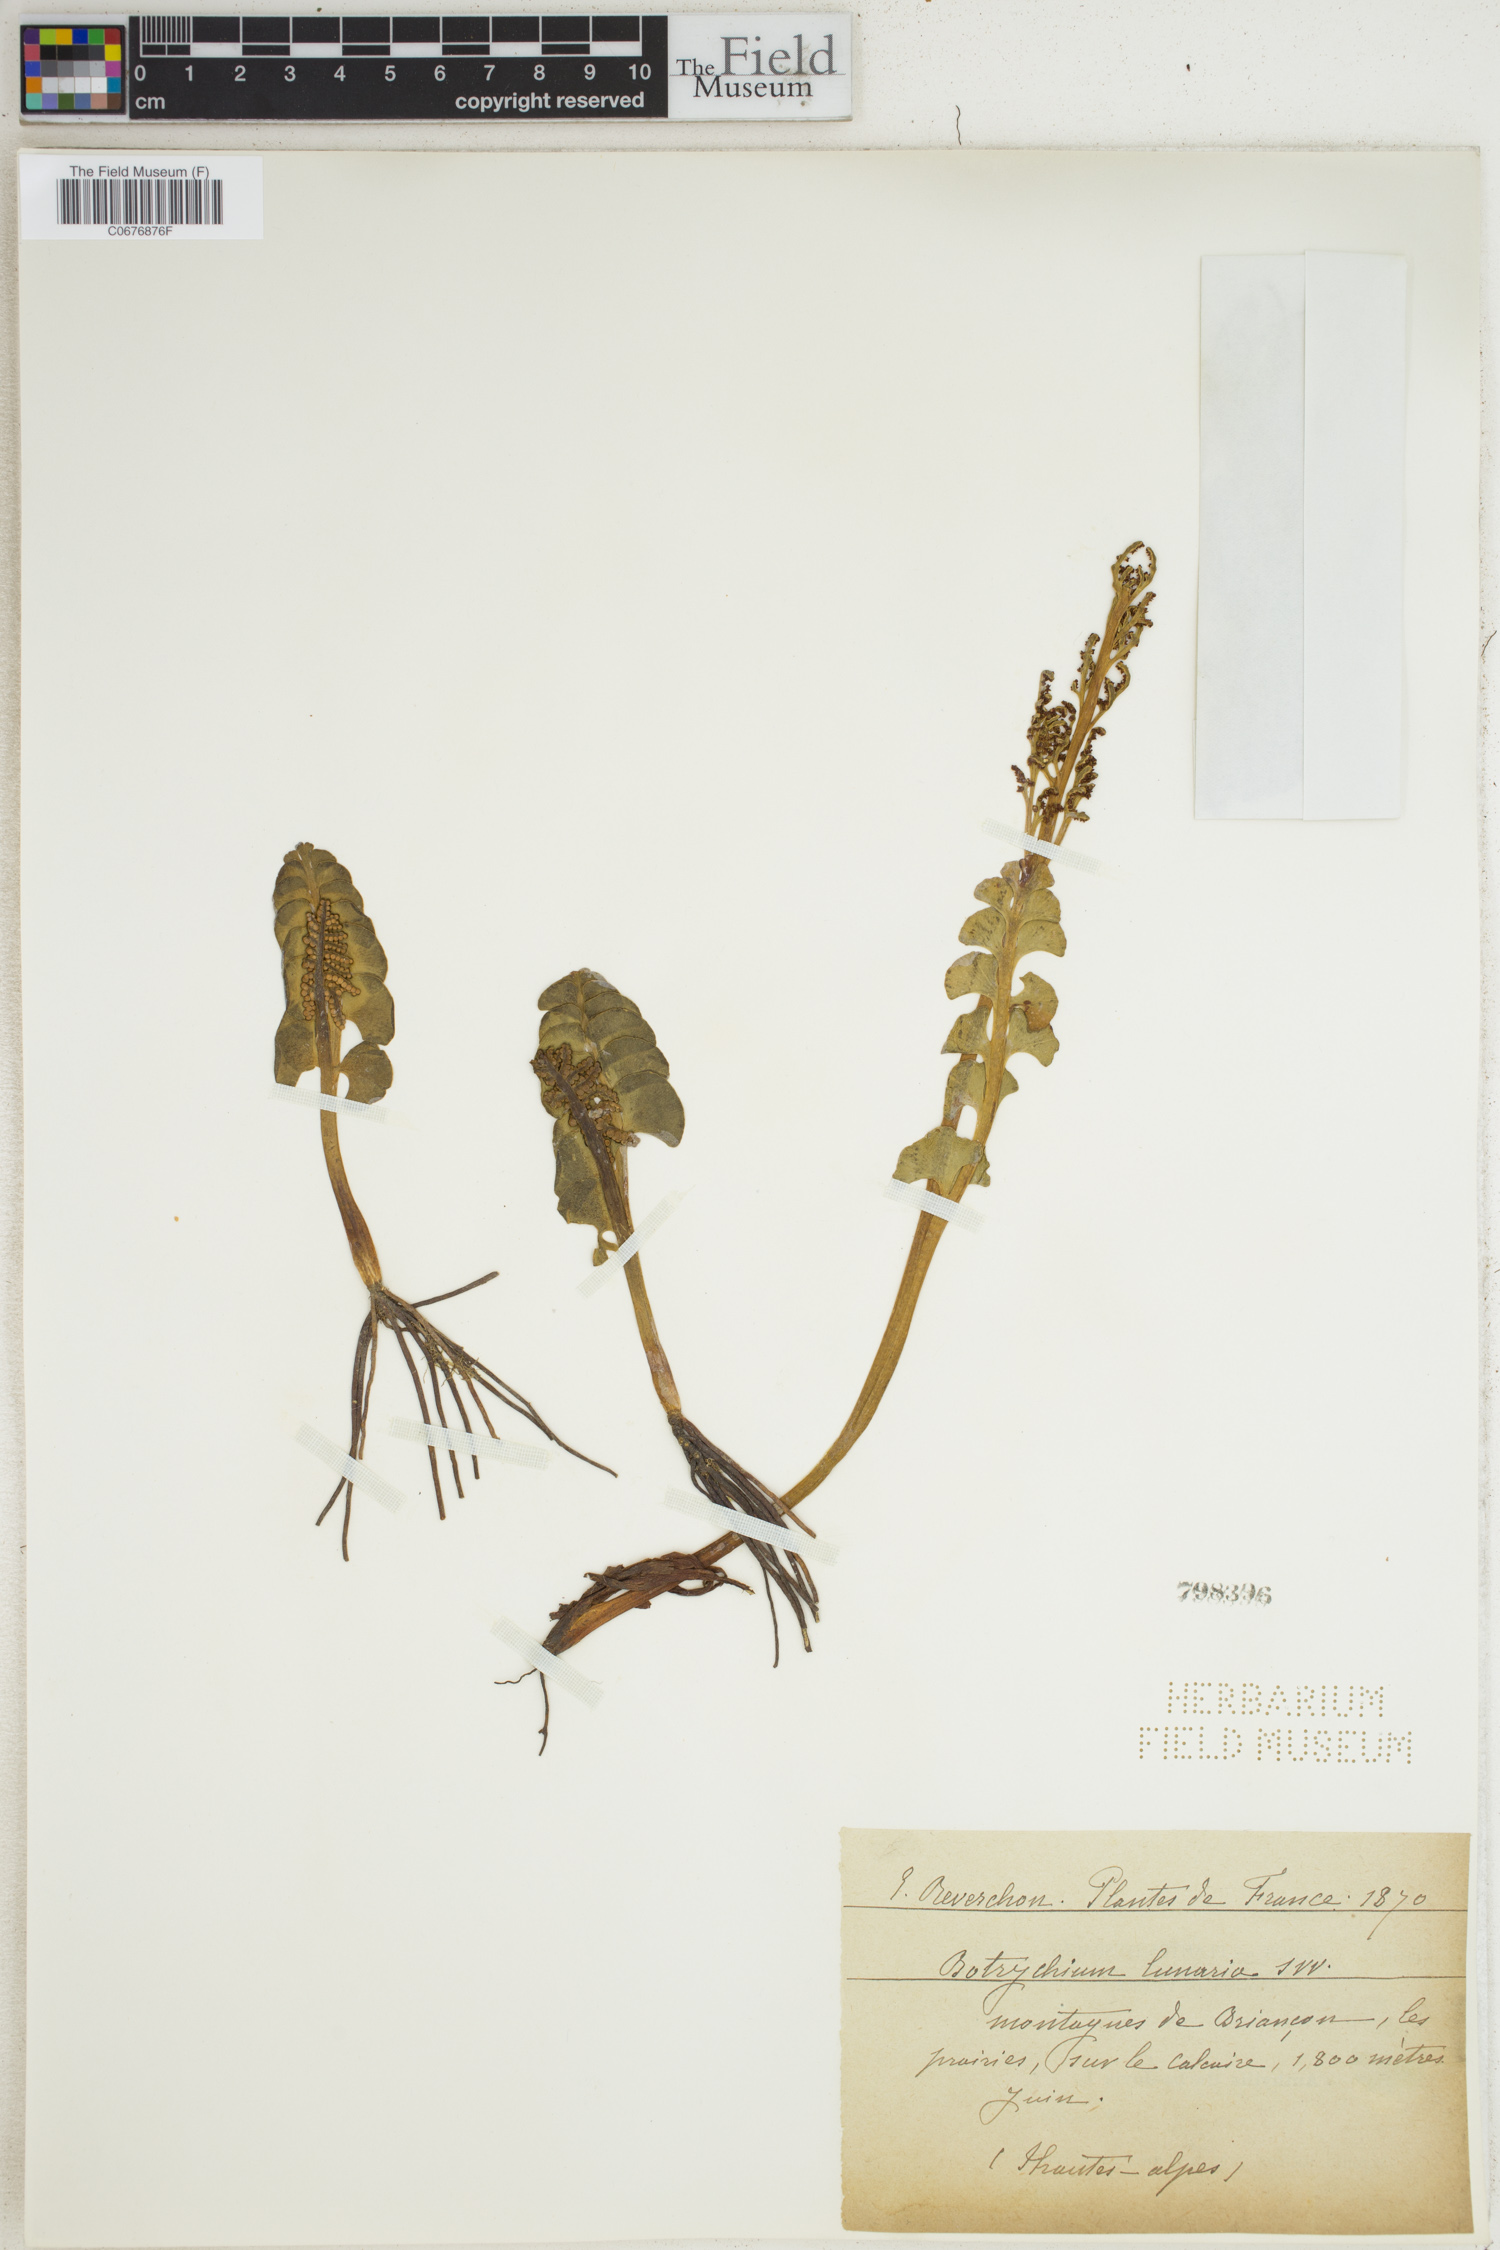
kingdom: Plantae
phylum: Tracheophyta
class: Polypodiopsida
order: Ophioglossales
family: Ophioglossaceae
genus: Botrychium
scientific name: Botrychium lunaria
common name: Moonwort
